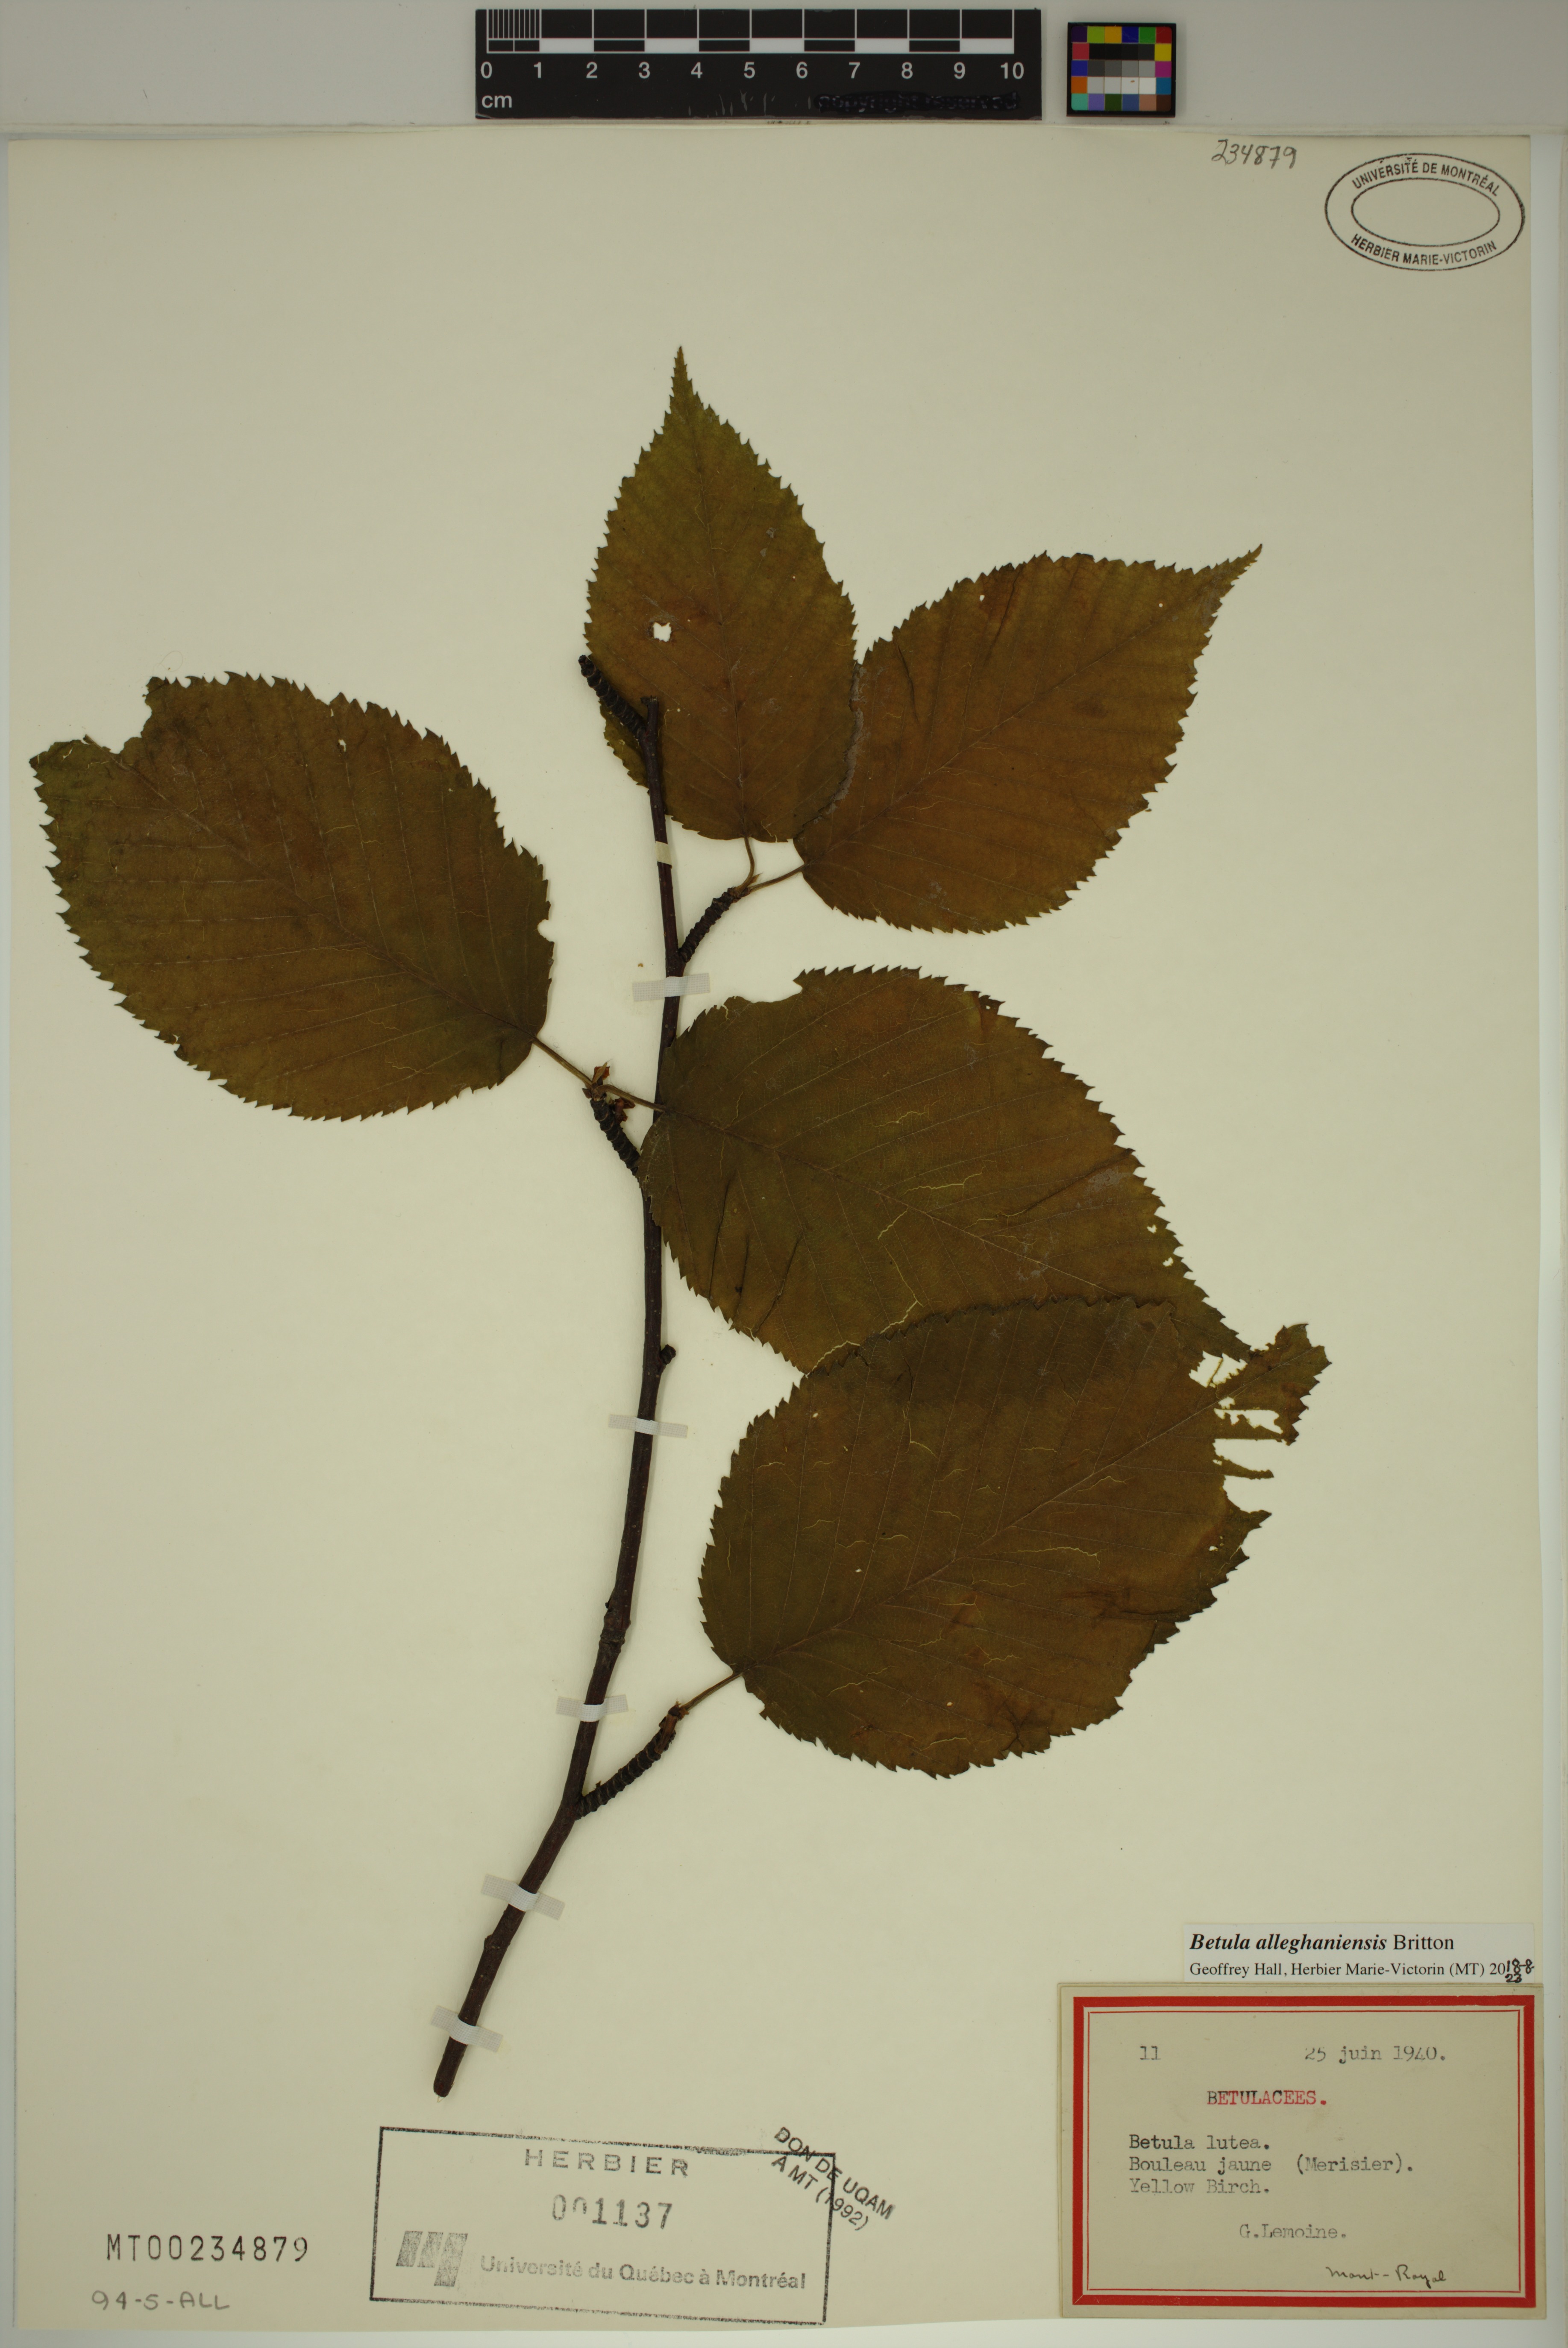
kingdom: Plantae
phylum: Tracheophyta
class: Magnoliopsida
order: Fagales
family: Betulaceae
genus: Betula
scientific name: Betula alleghaniensis
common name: Yellow birch
